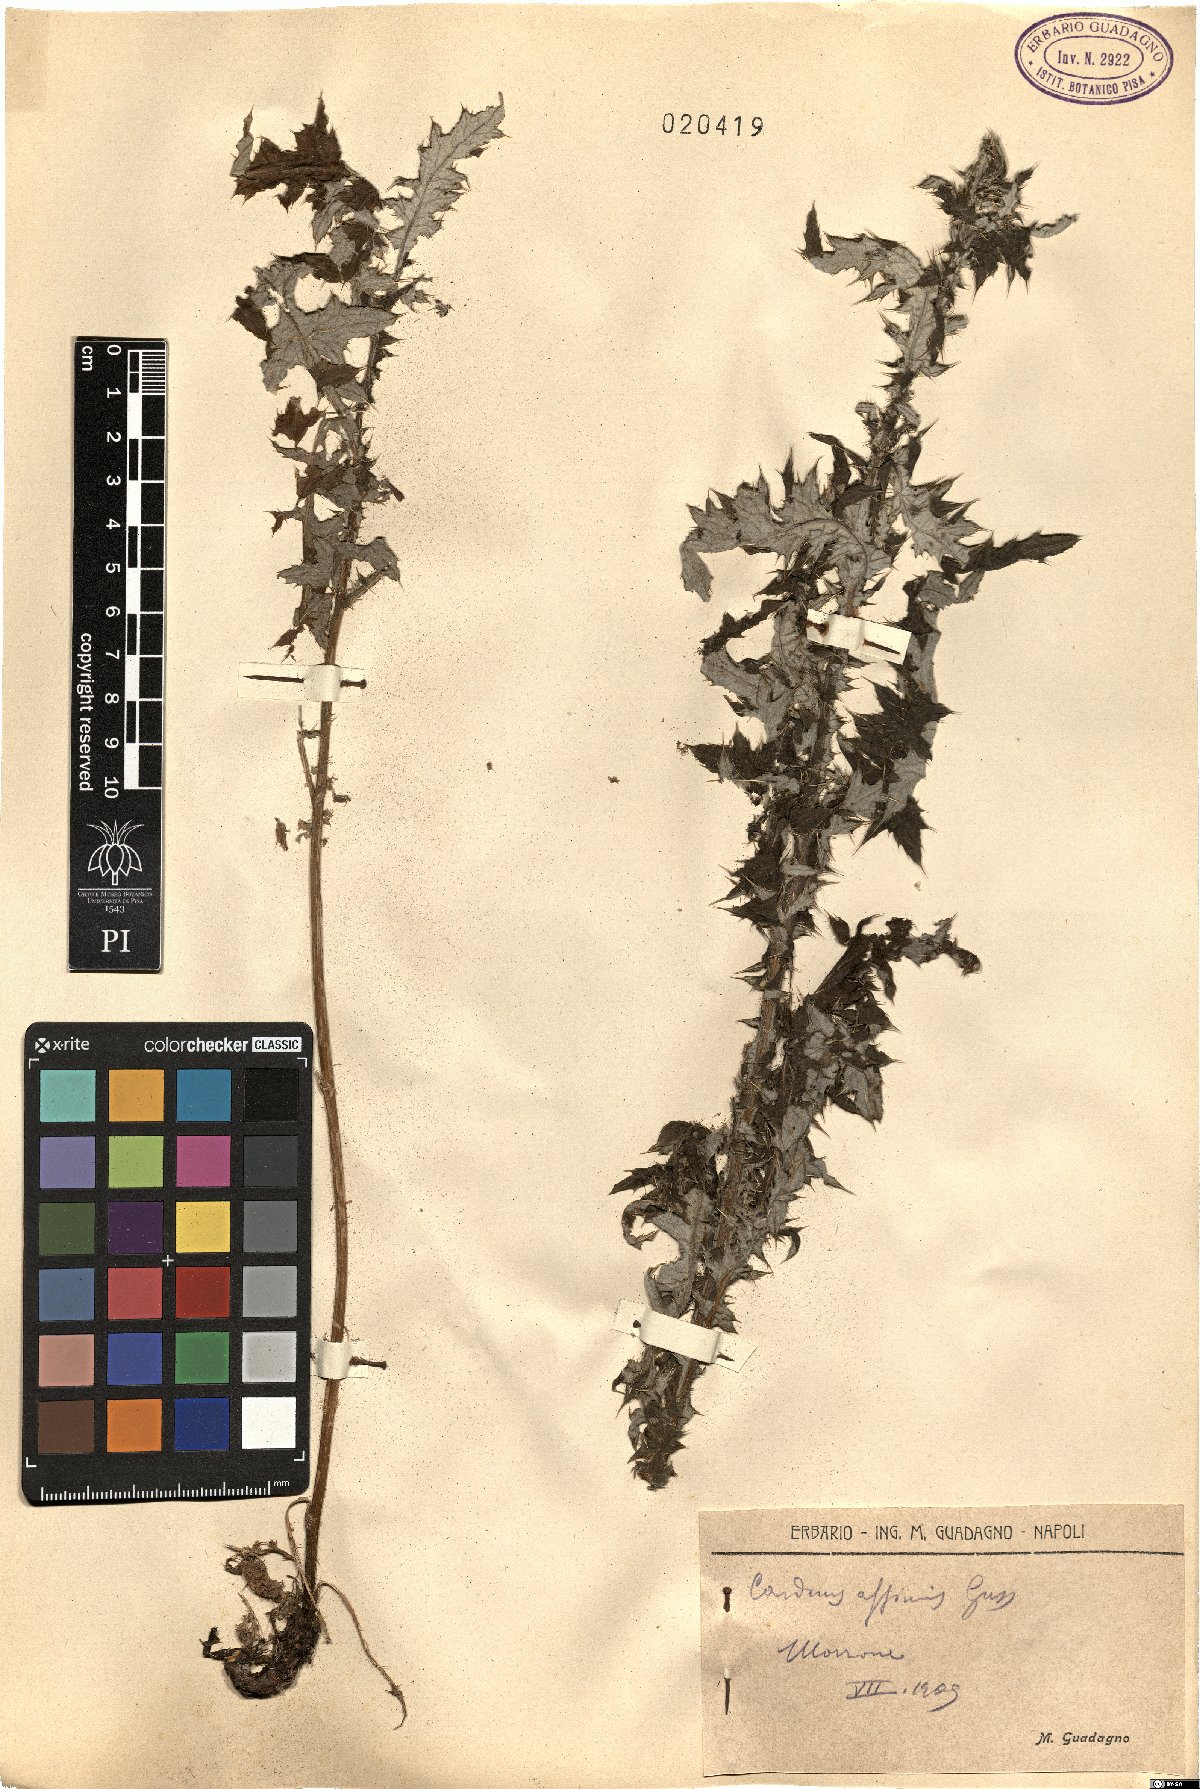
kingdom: Plantae
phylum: Tracheophyta
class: Magnoliopsida
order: Asterales
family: Asteraceae
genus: Carduus
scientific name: Carduus affinis
